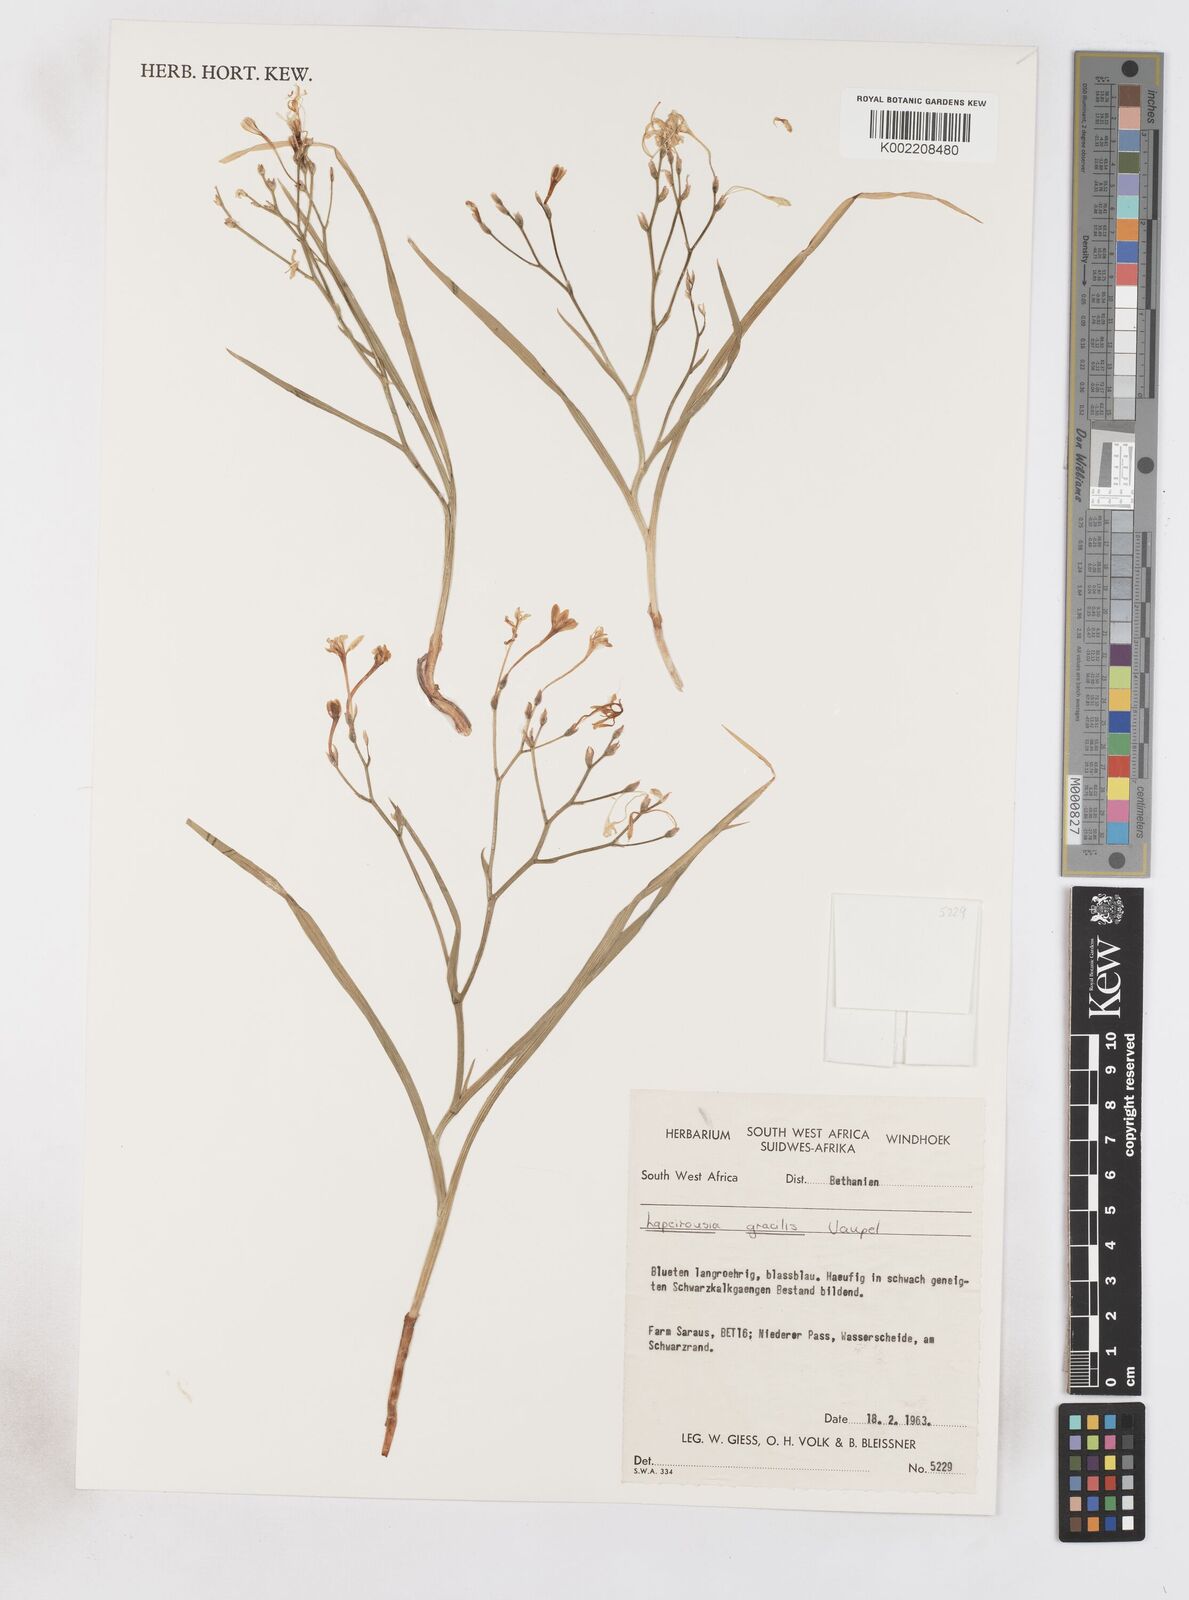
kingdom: Plantae
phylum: Tracheophyta
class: Liliopsida
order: Asparagales
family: Iridaceae
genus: Afrosolen
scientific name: Afrosolen gracilis
